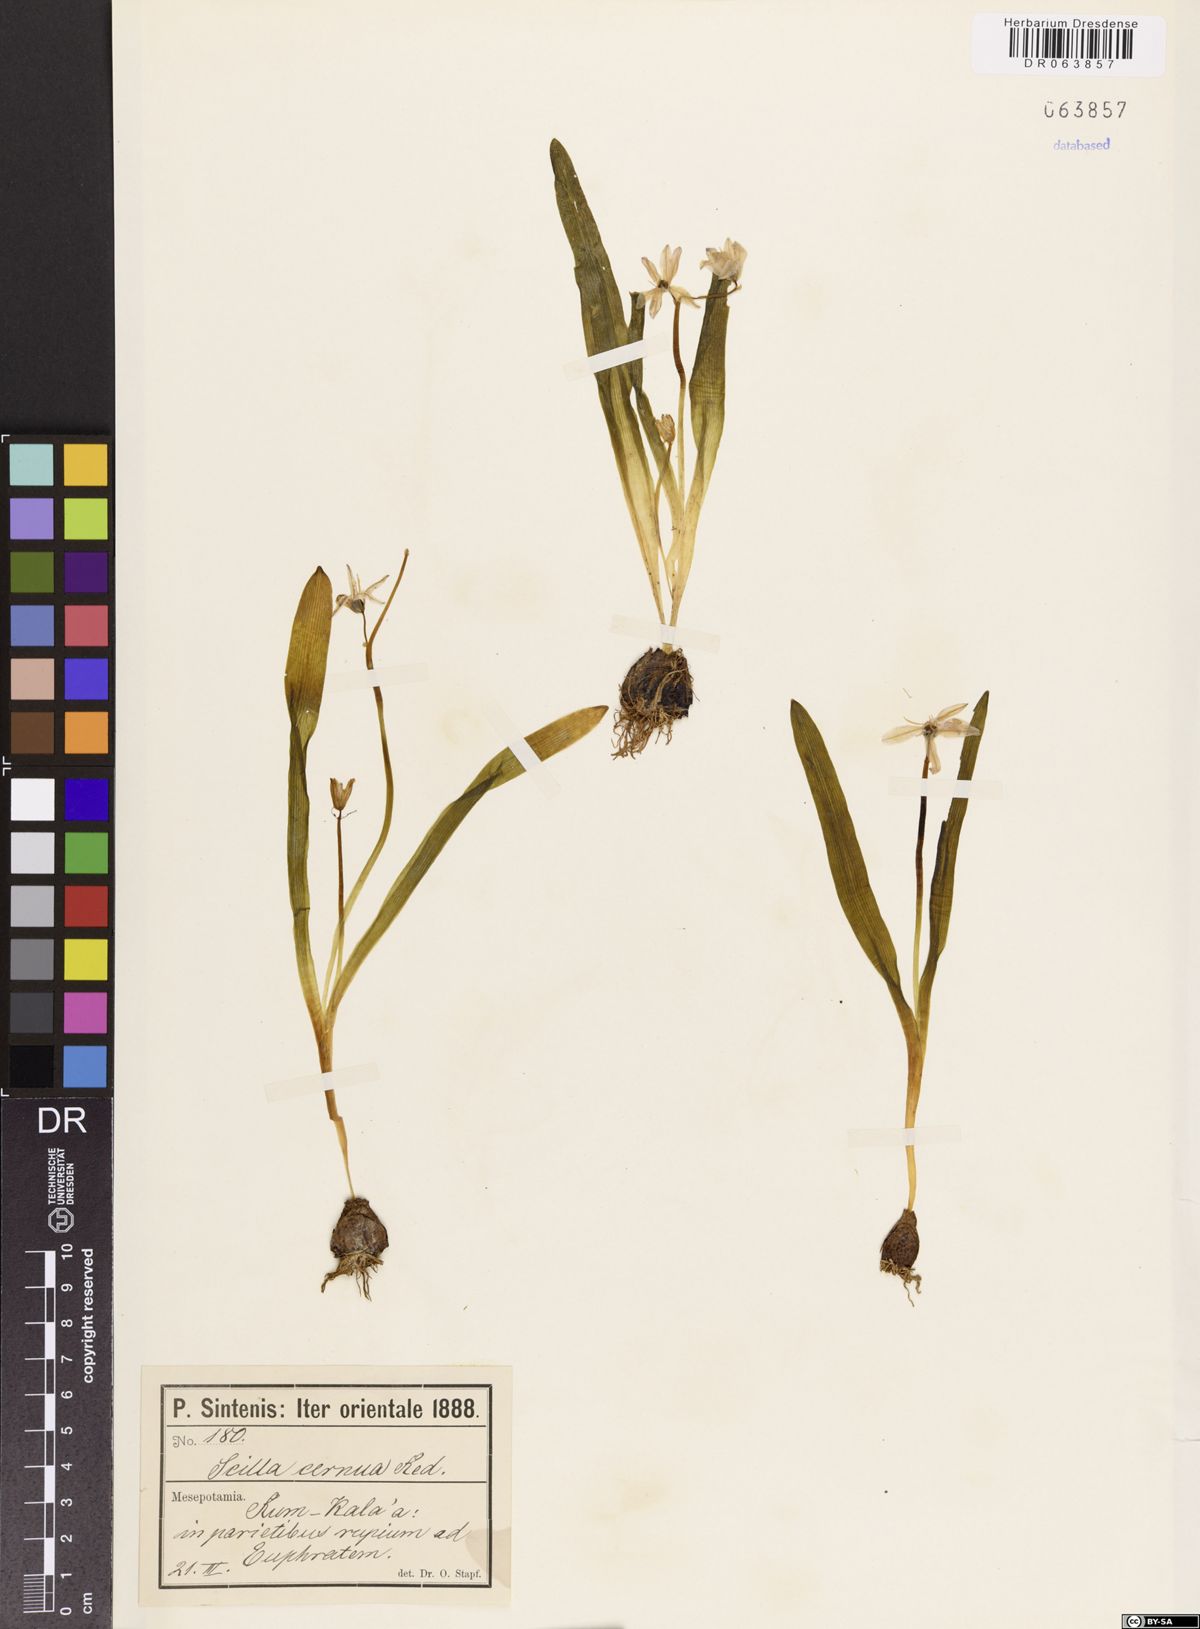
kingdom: Plantae
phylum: Tracheophyta
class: Liliopsida
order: Asparagales
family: Asparagaceae
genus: Scilla
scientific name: Scilla siberica
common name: Siberian squill
